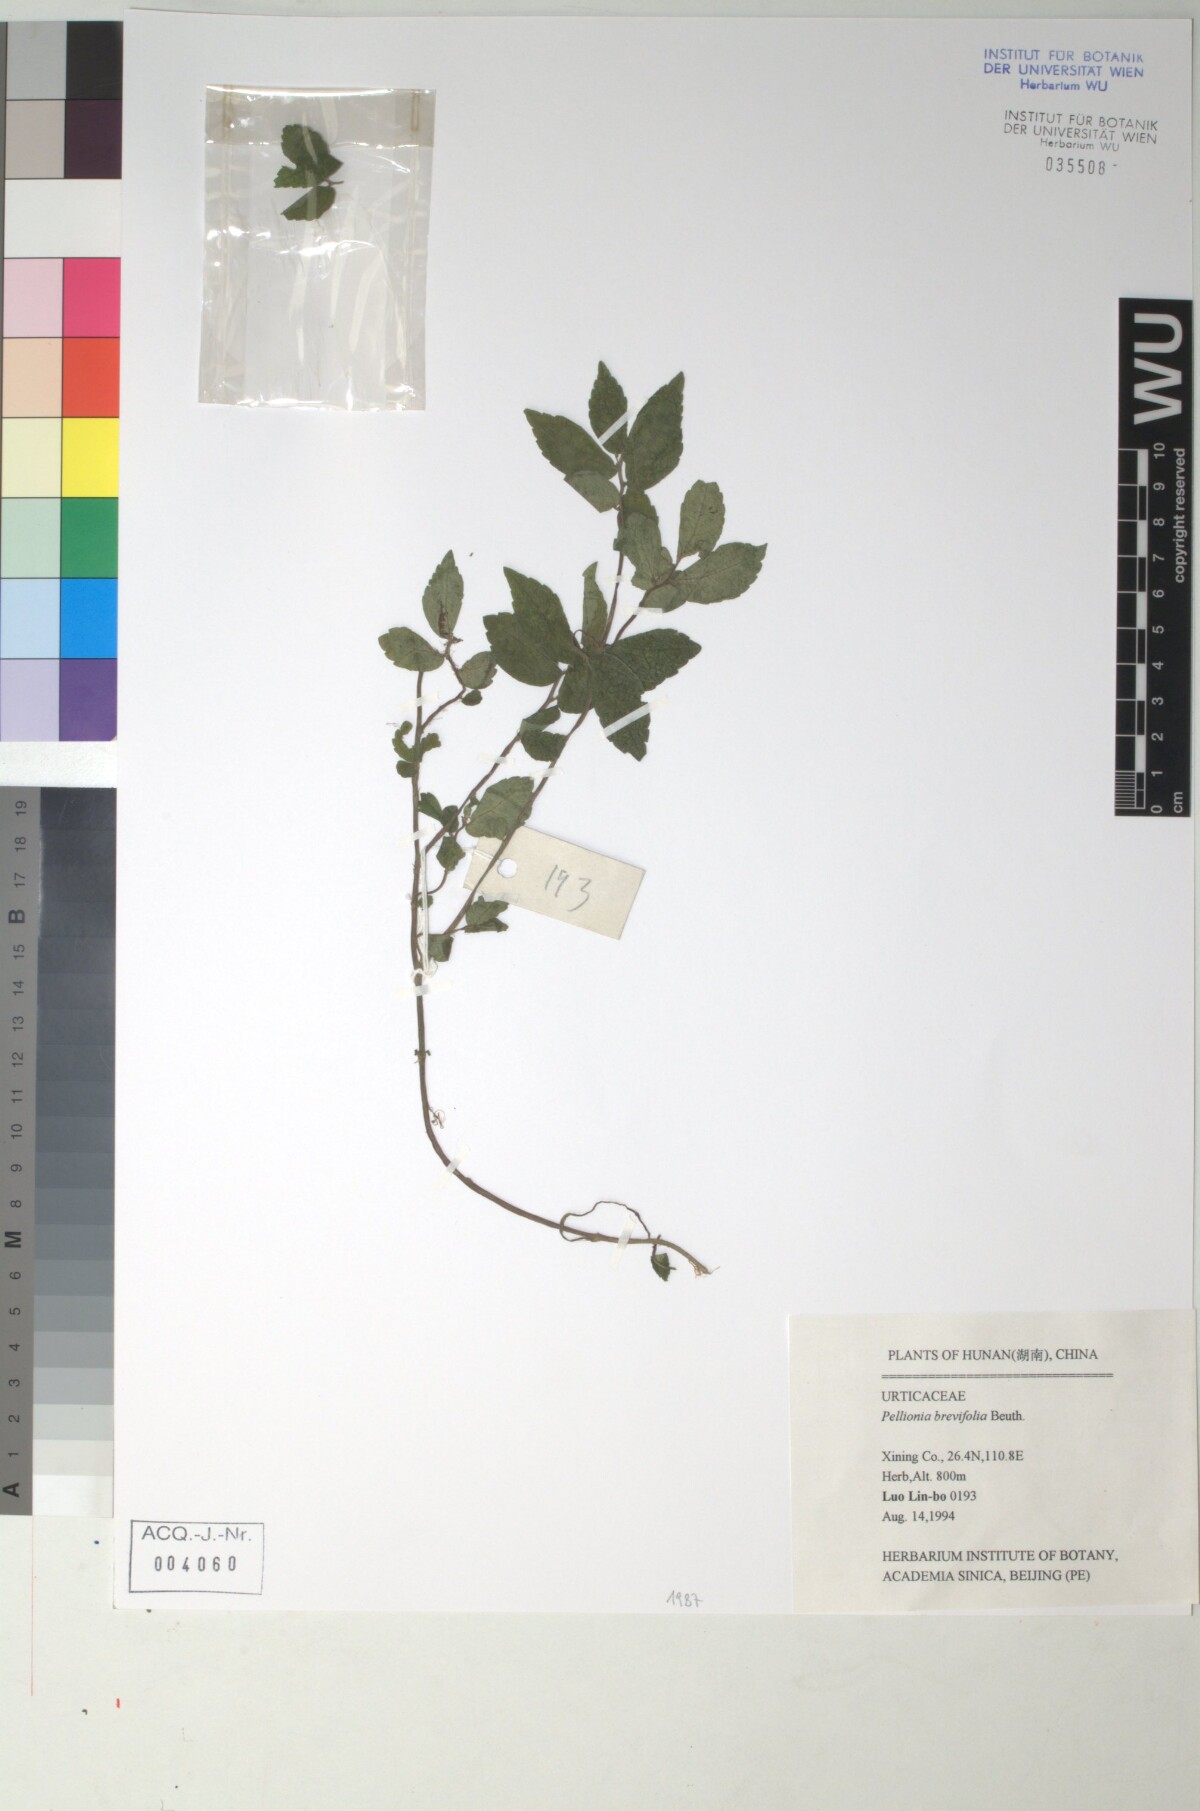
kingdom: Plantae
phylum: Tracheophyta
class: Magnoliopsida
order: Rosales
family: Urticaceae
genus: Elatostema
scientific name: Elatostema brevifolium
